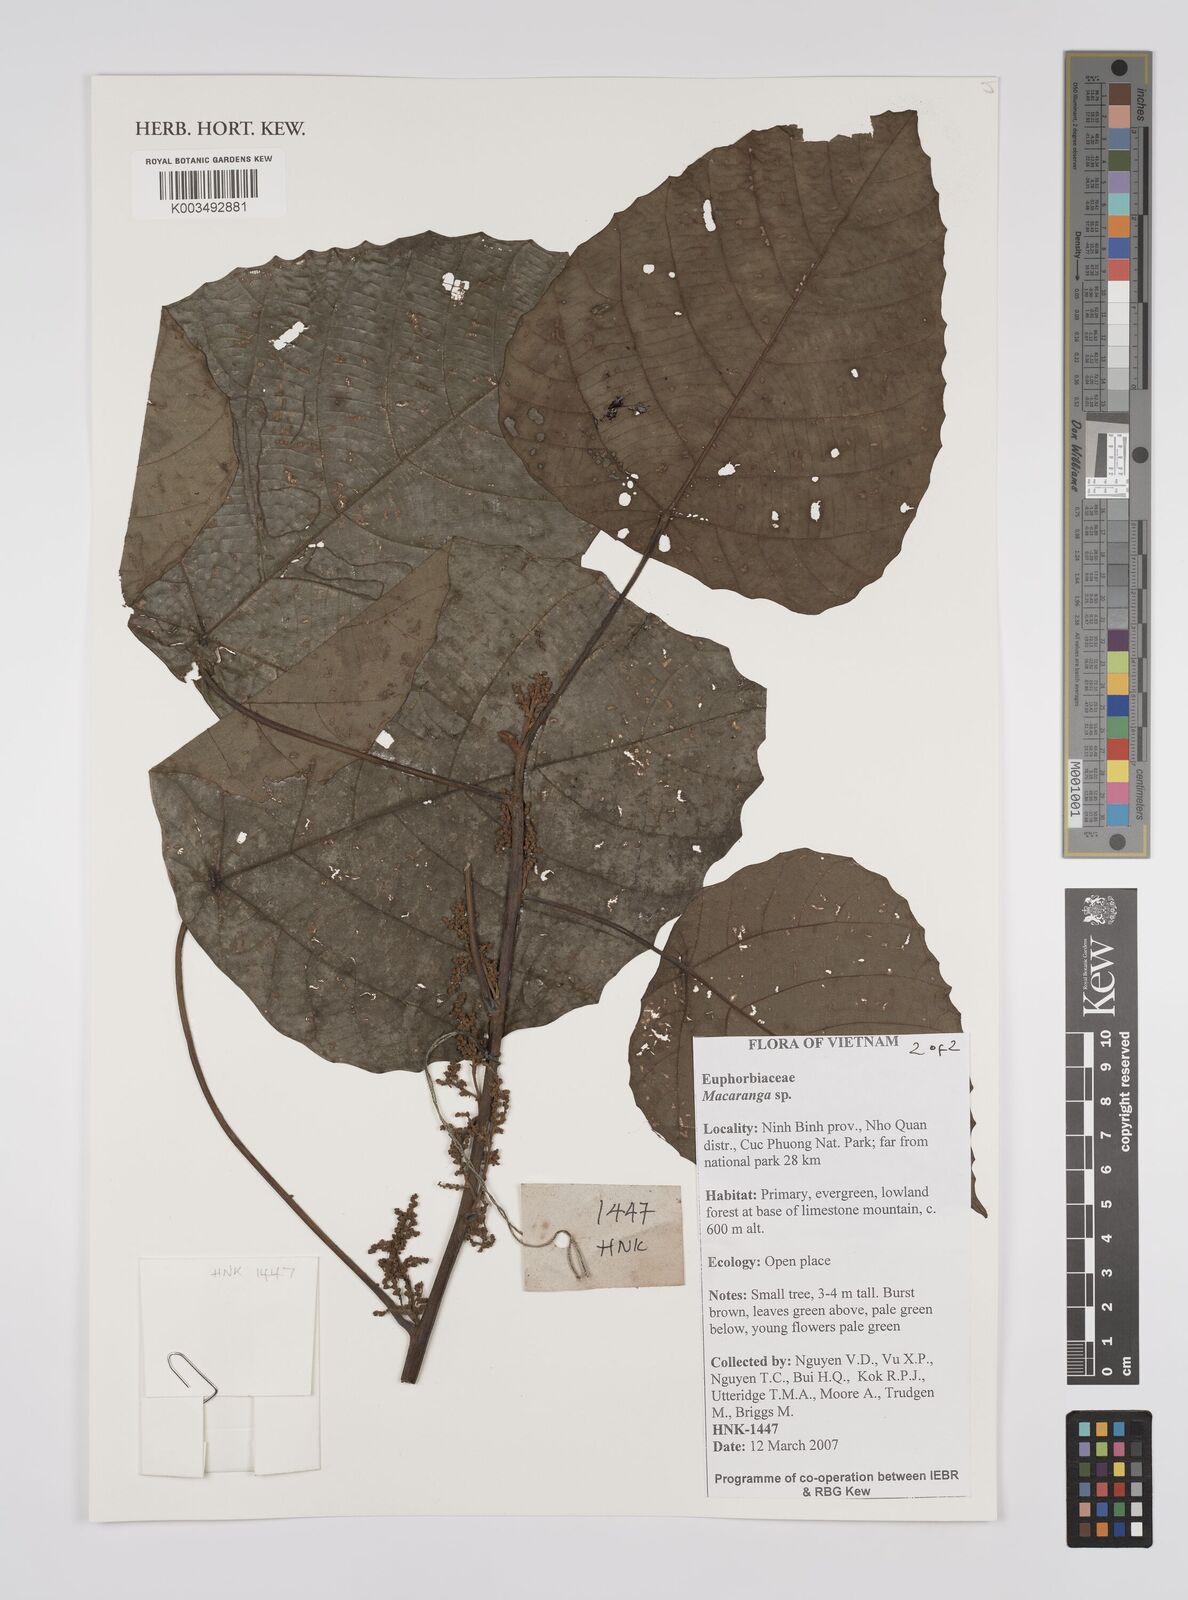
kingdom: Plantae
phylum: Tracheophyta
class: Magnoliopsida
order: Malpighiales
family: Euphorbiaceae
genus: Macaranga
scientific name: Macaranga
